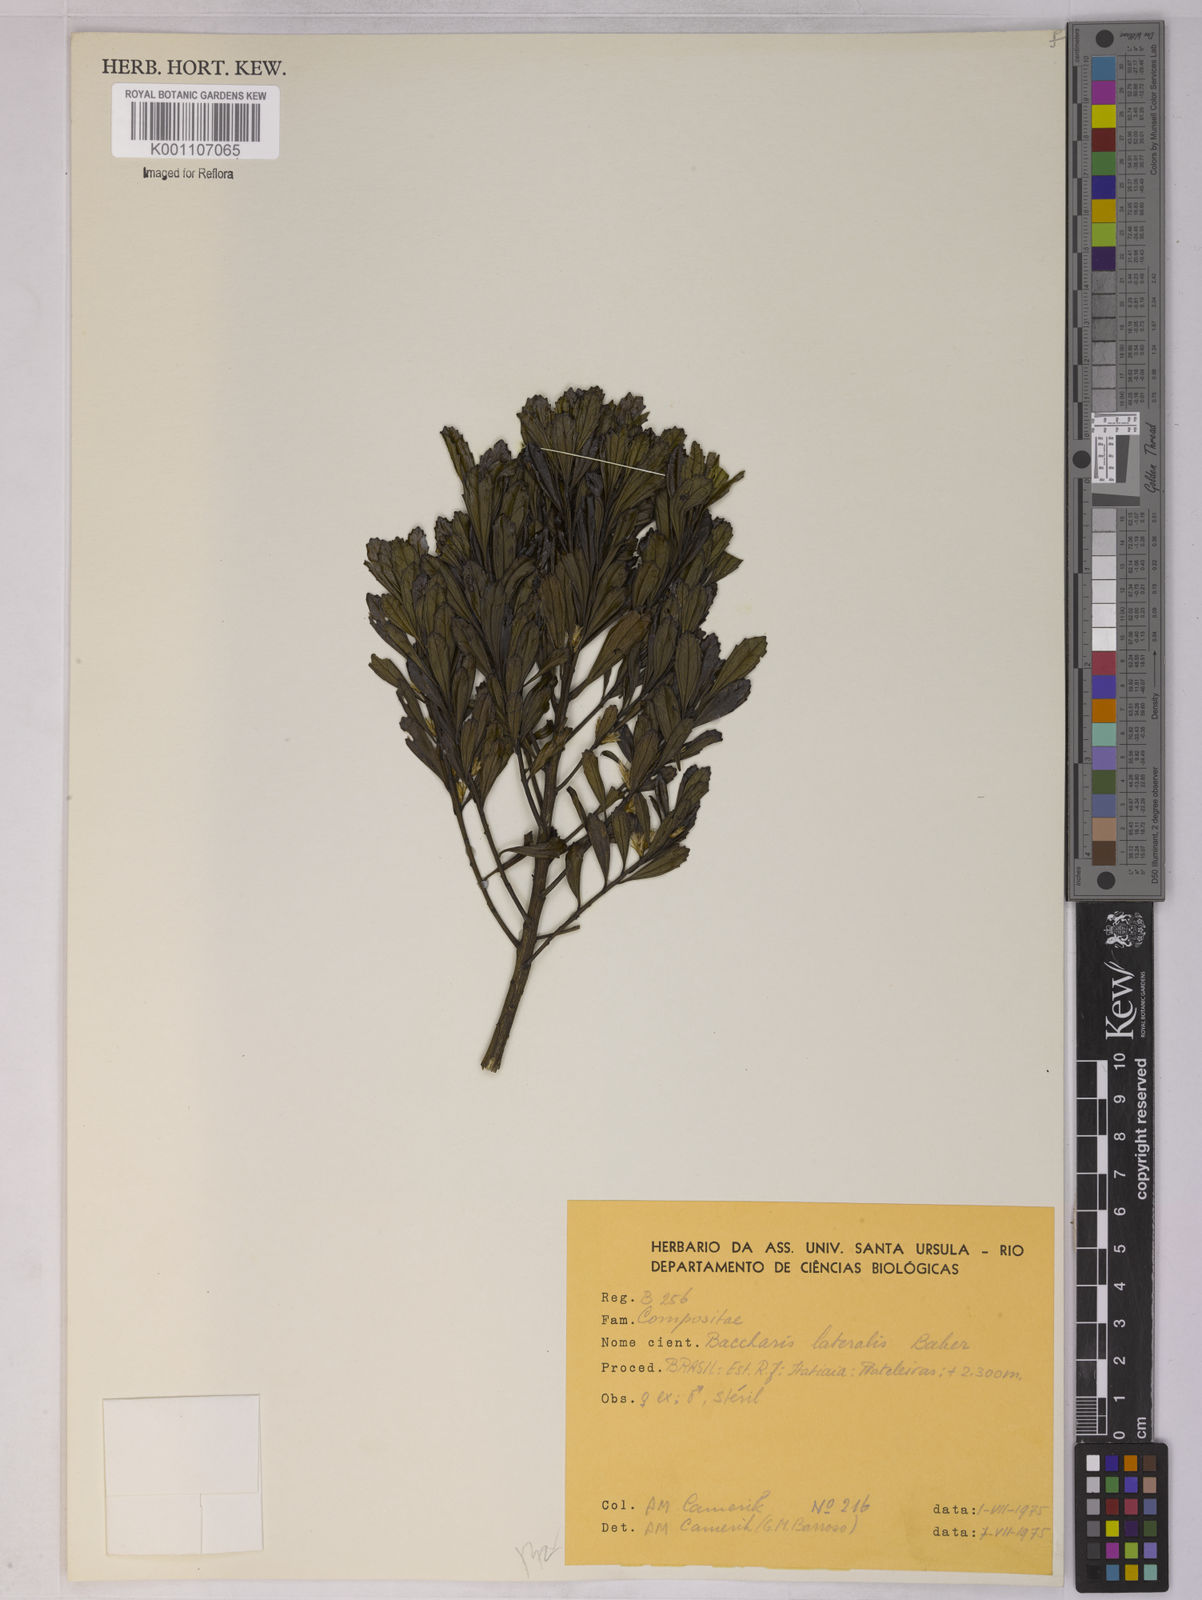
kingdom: Plantae
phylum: Tracheophyta
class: Magnoliopsida
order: Asterales
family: Asteraceae
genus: Baccharis
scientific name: Baccharis lateralis
